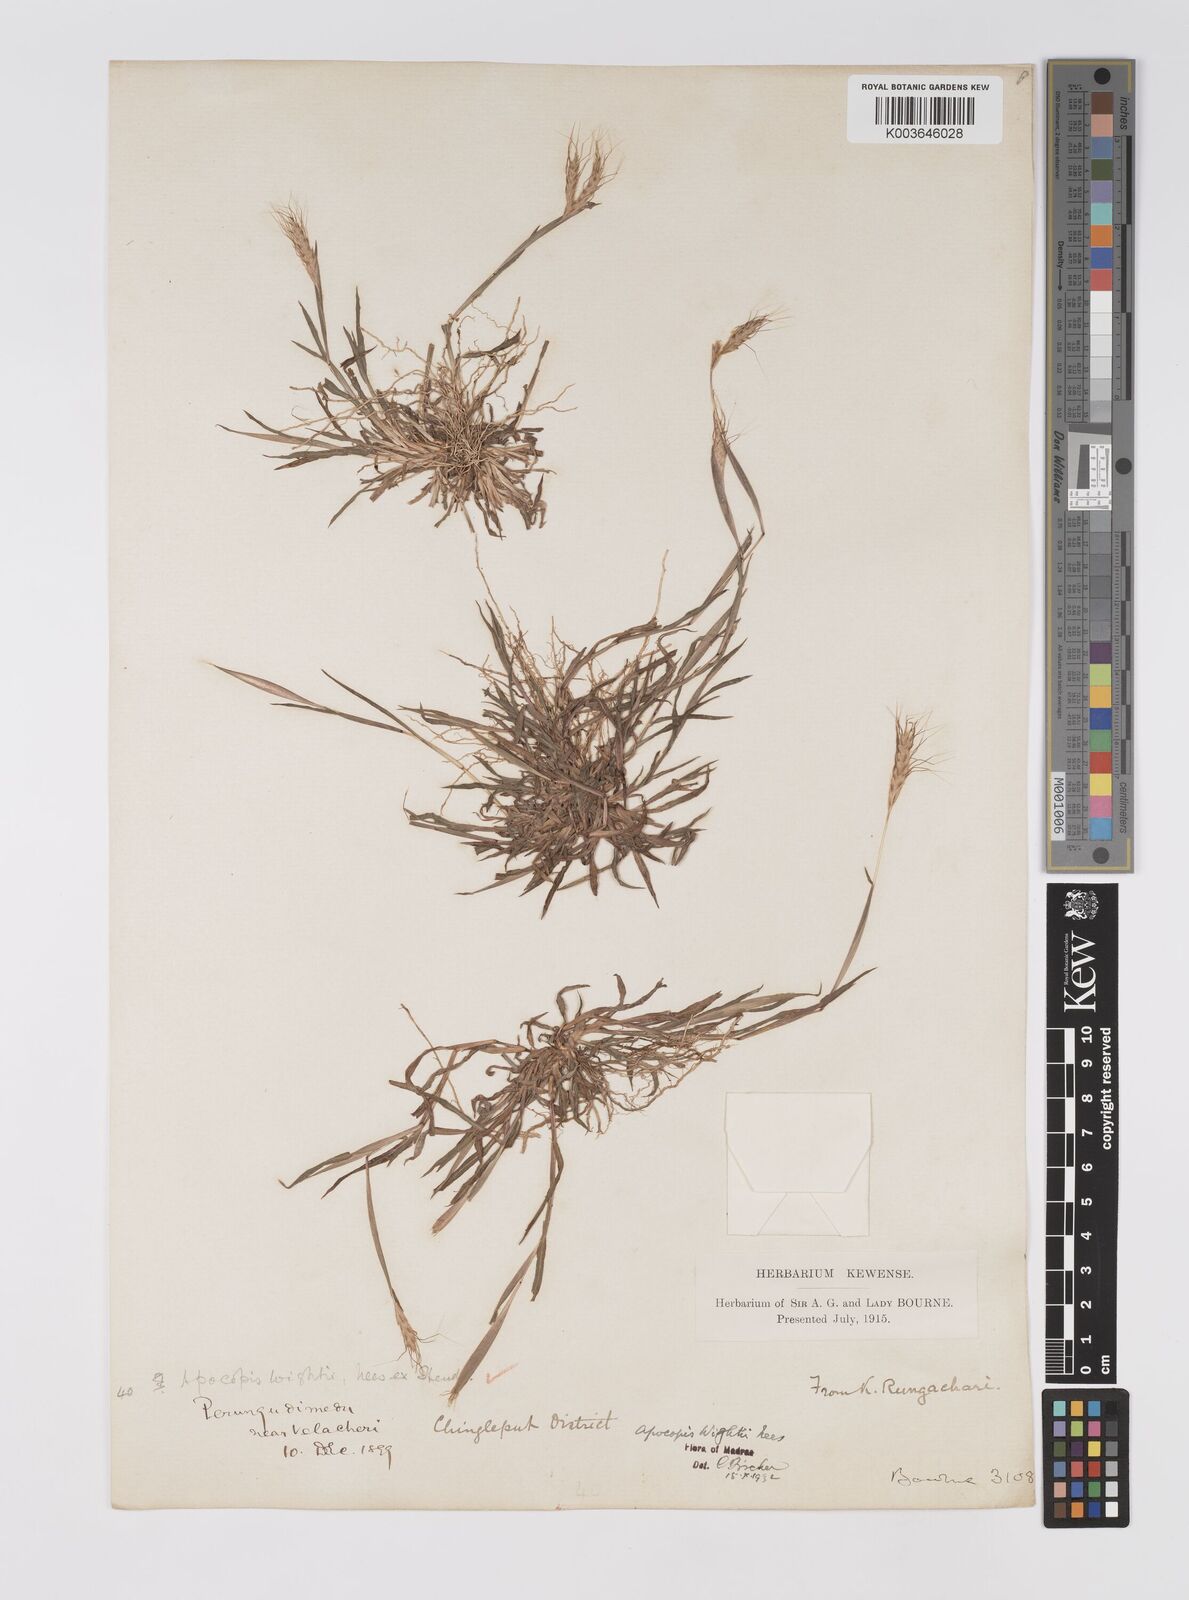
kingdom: Plantae
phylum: Tracheophyta
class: Liliopsida
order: Poales
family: Poaceae
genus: Apocopis
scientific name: Apocopis mangalorensis
